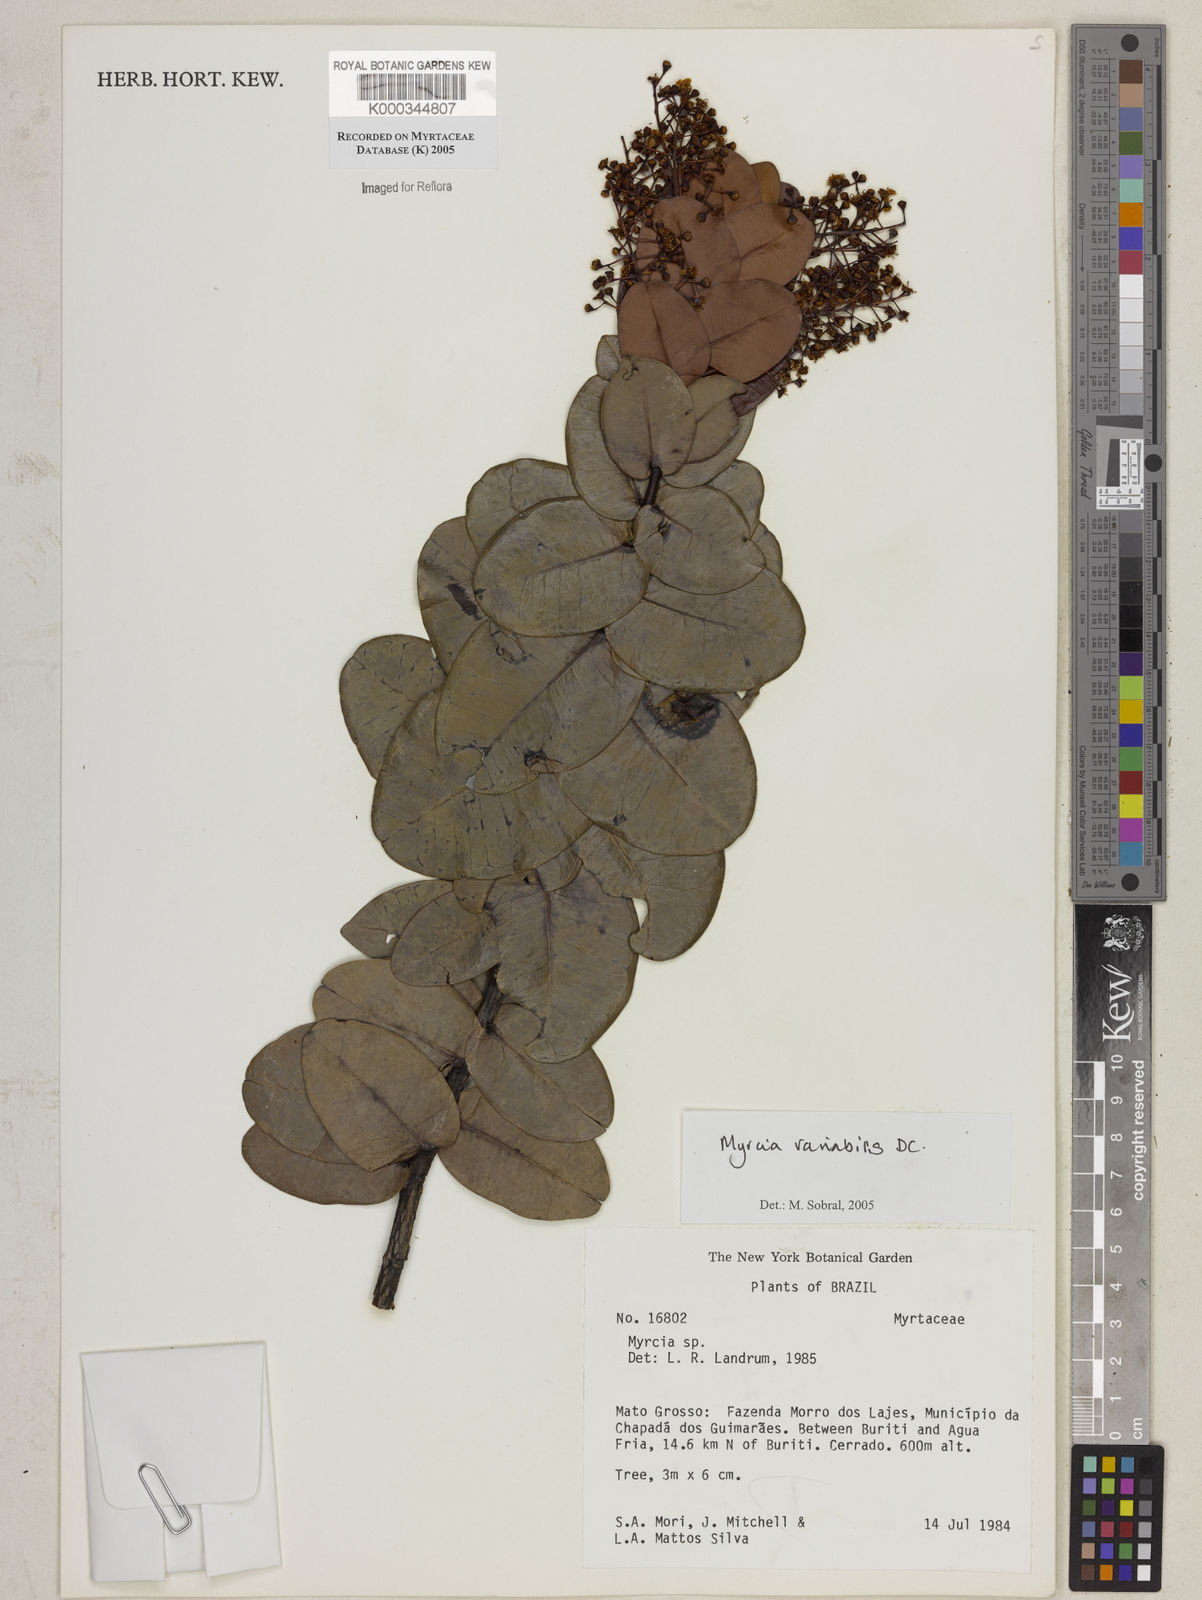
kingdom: Plantae
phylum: Tracheophyta
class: Magnoliopsida
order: Myrtales
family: Myrtaceae
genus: Myrcia
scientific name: Myrcia variabilis
